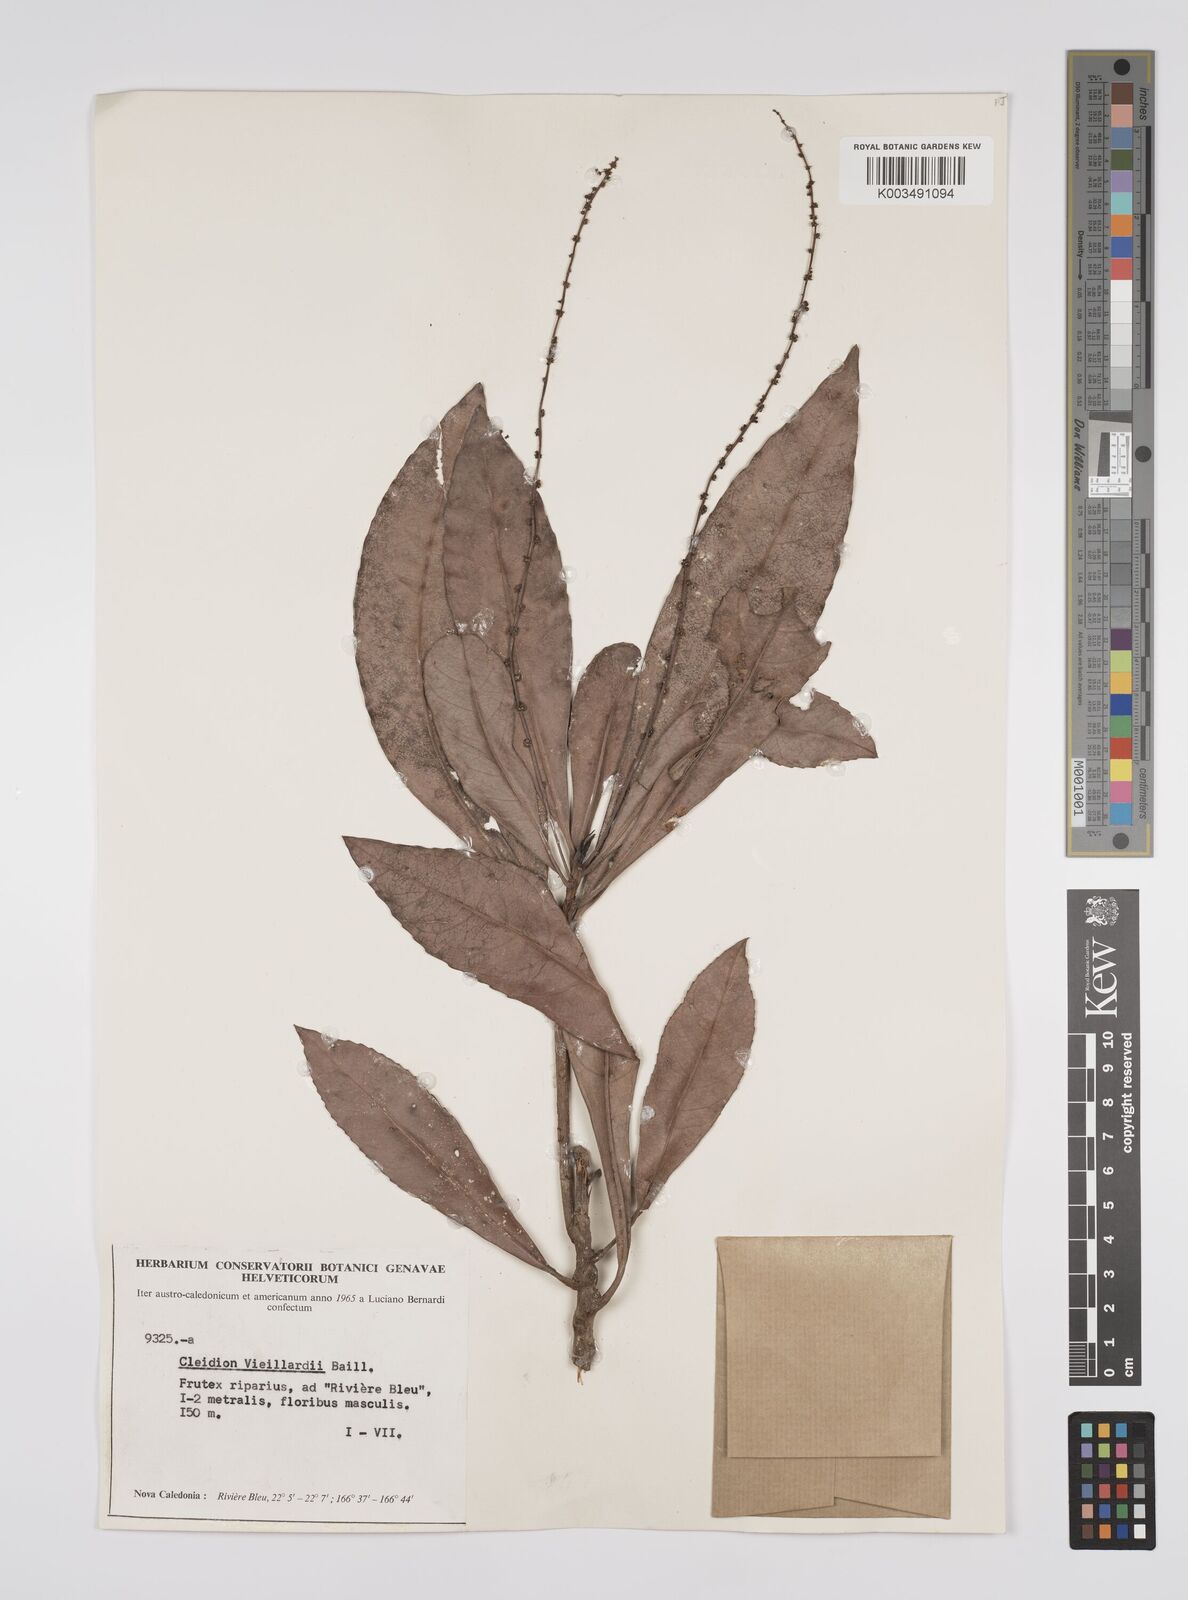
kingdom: Plantae
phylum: Tracheophyta
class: Magnoliopsida
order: Malpighiales
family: Euphorbiaceae
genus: Cleidion
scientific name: Cleidion vieillardii
